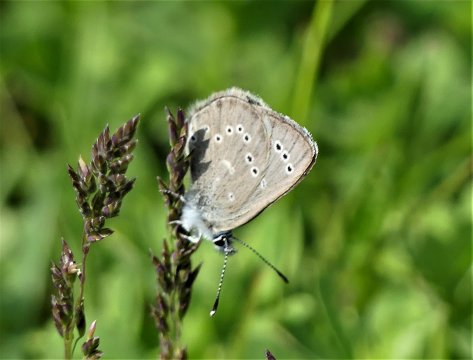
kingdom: Animalia
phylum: Arthropoda
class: Insecta
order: Lepidoptera
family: Lycaenidae
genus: Glaucopsyche
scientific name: Glaucopsyche lygdamus
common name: Silvery Blue
